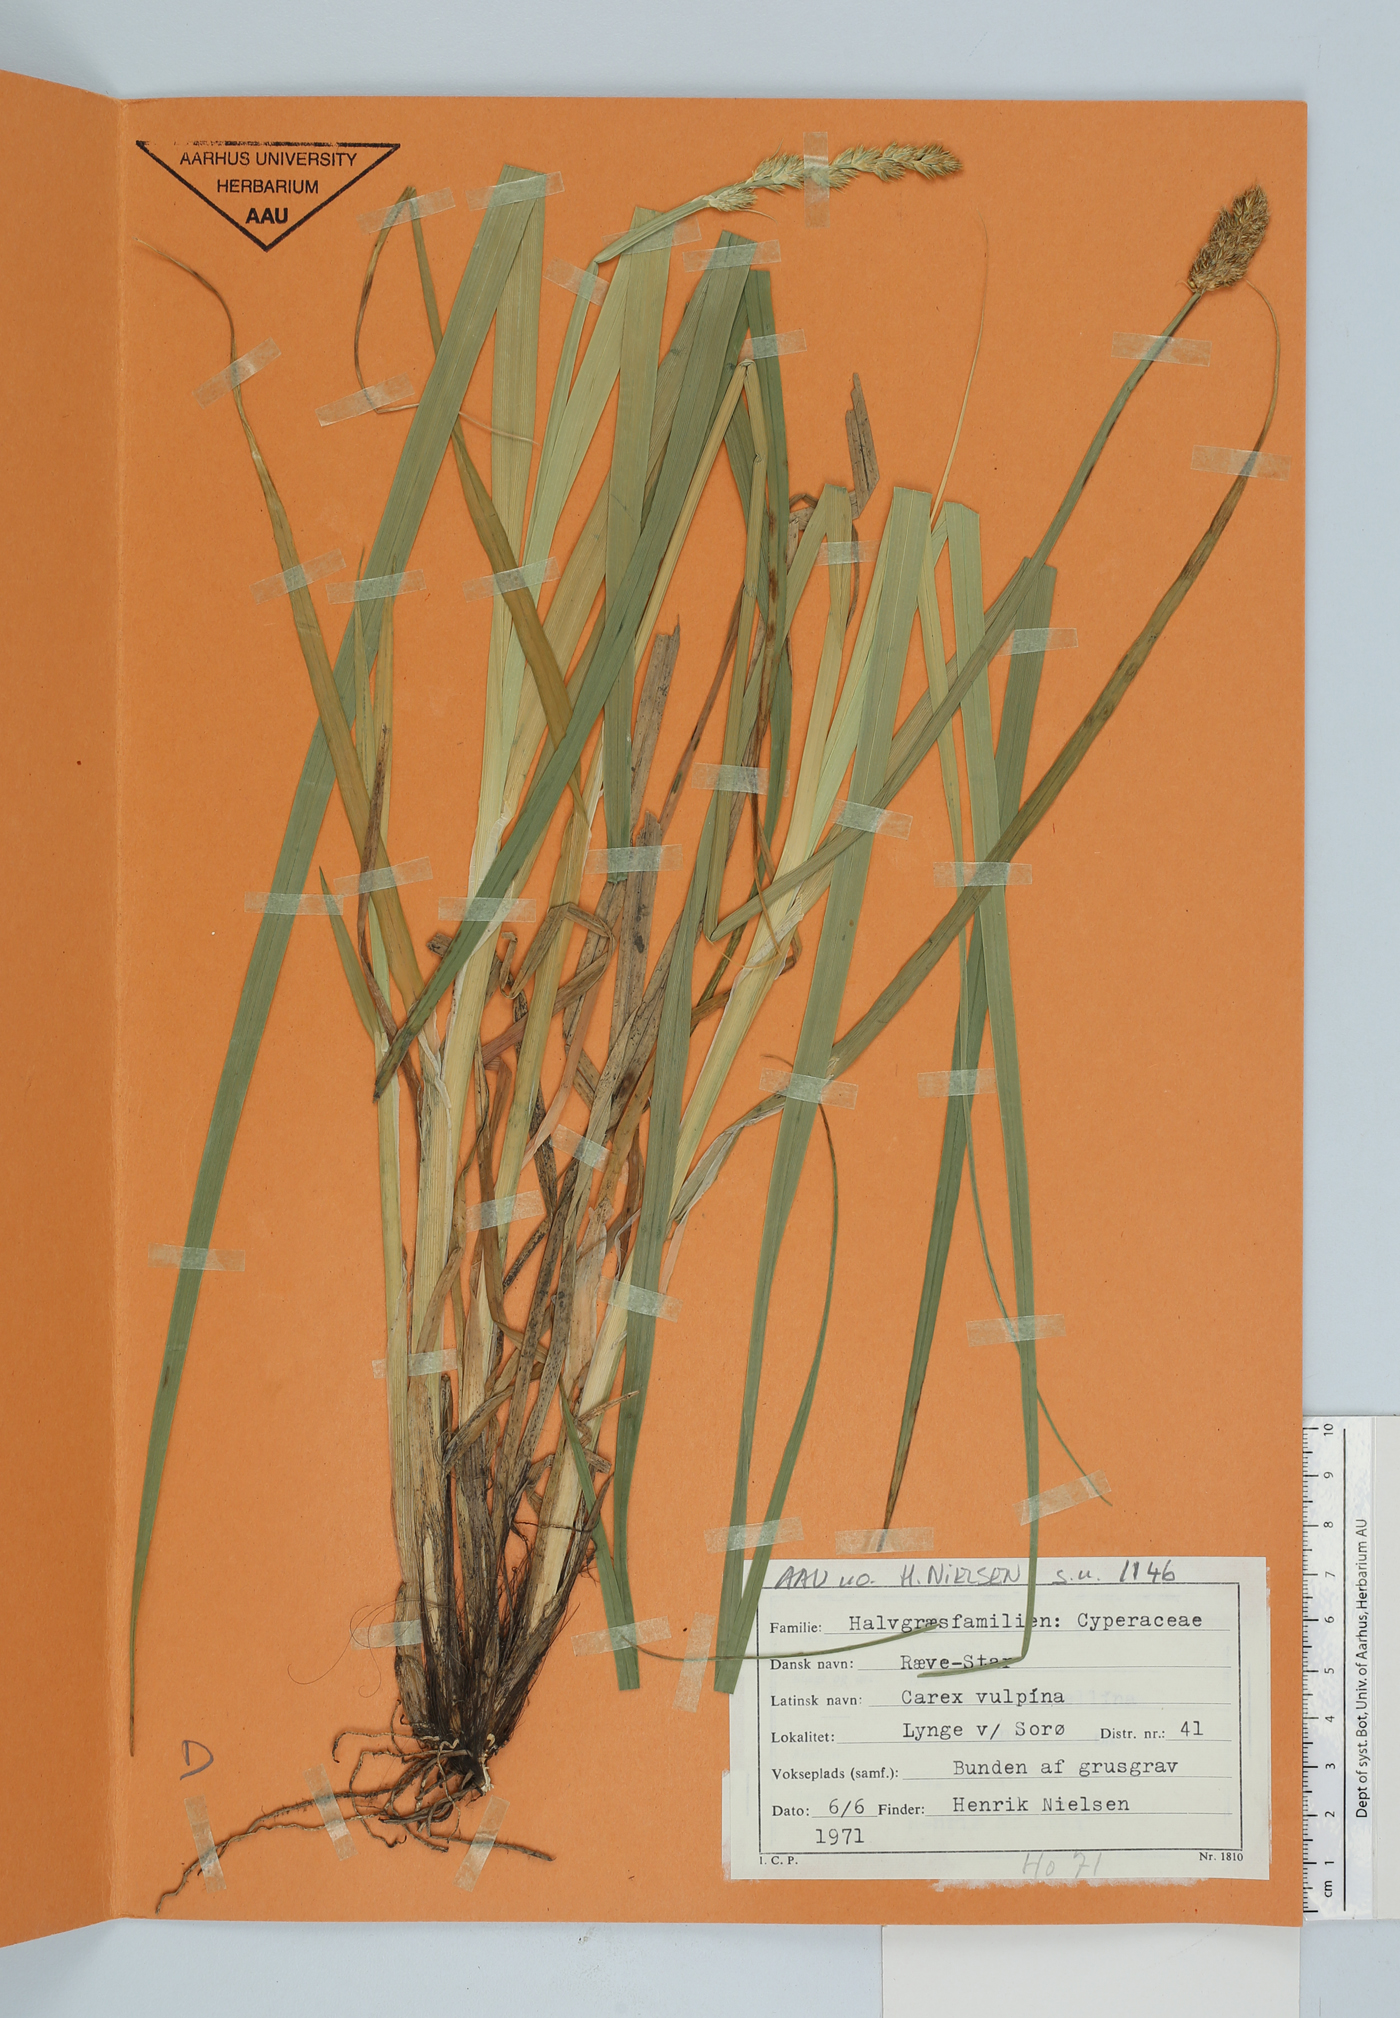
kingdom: Plantae
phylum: Tracheophyta
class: Liliopsida
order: Poales
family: Cyperaceae
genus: Carex
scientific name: Carex vulpina
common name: True fox-sedge
